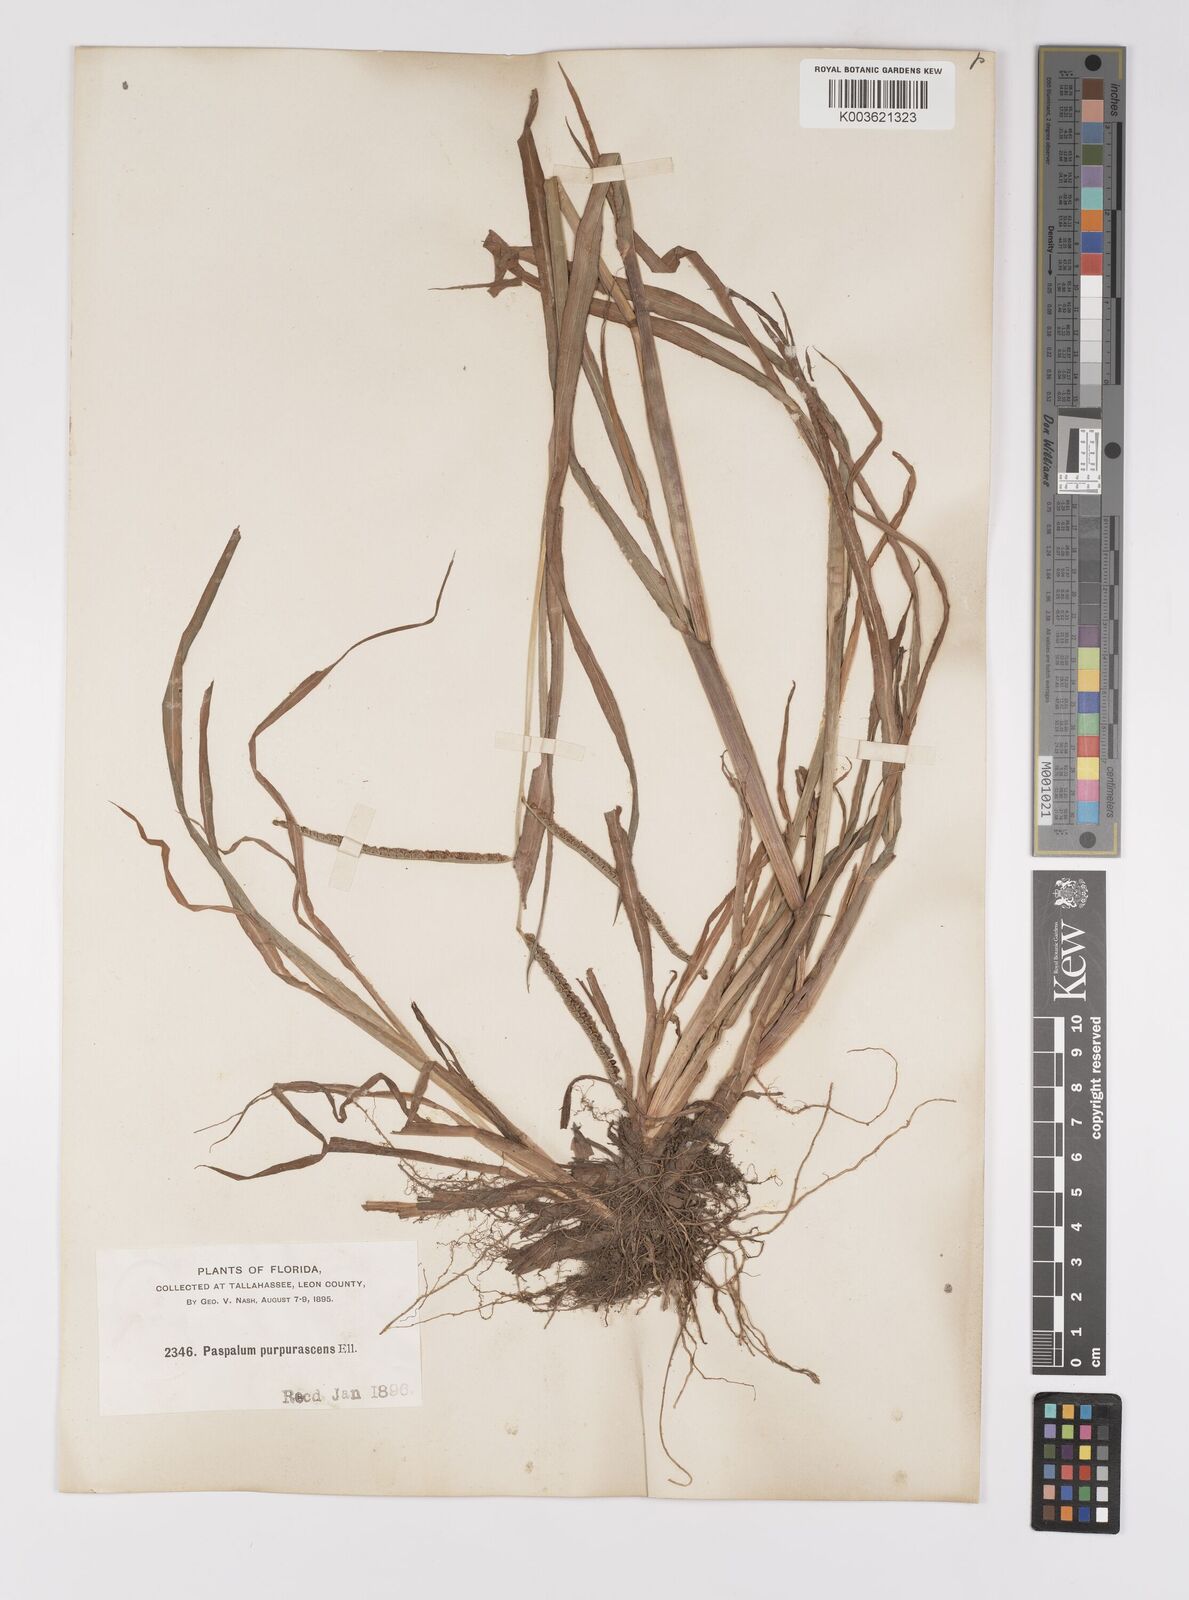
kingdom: Plantae
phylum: Tracheophyta
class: Liliopsida
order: Poales
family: Poaceae
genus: Paspalum
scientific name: Paspalum scrobiculatum
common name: Kodo millet
